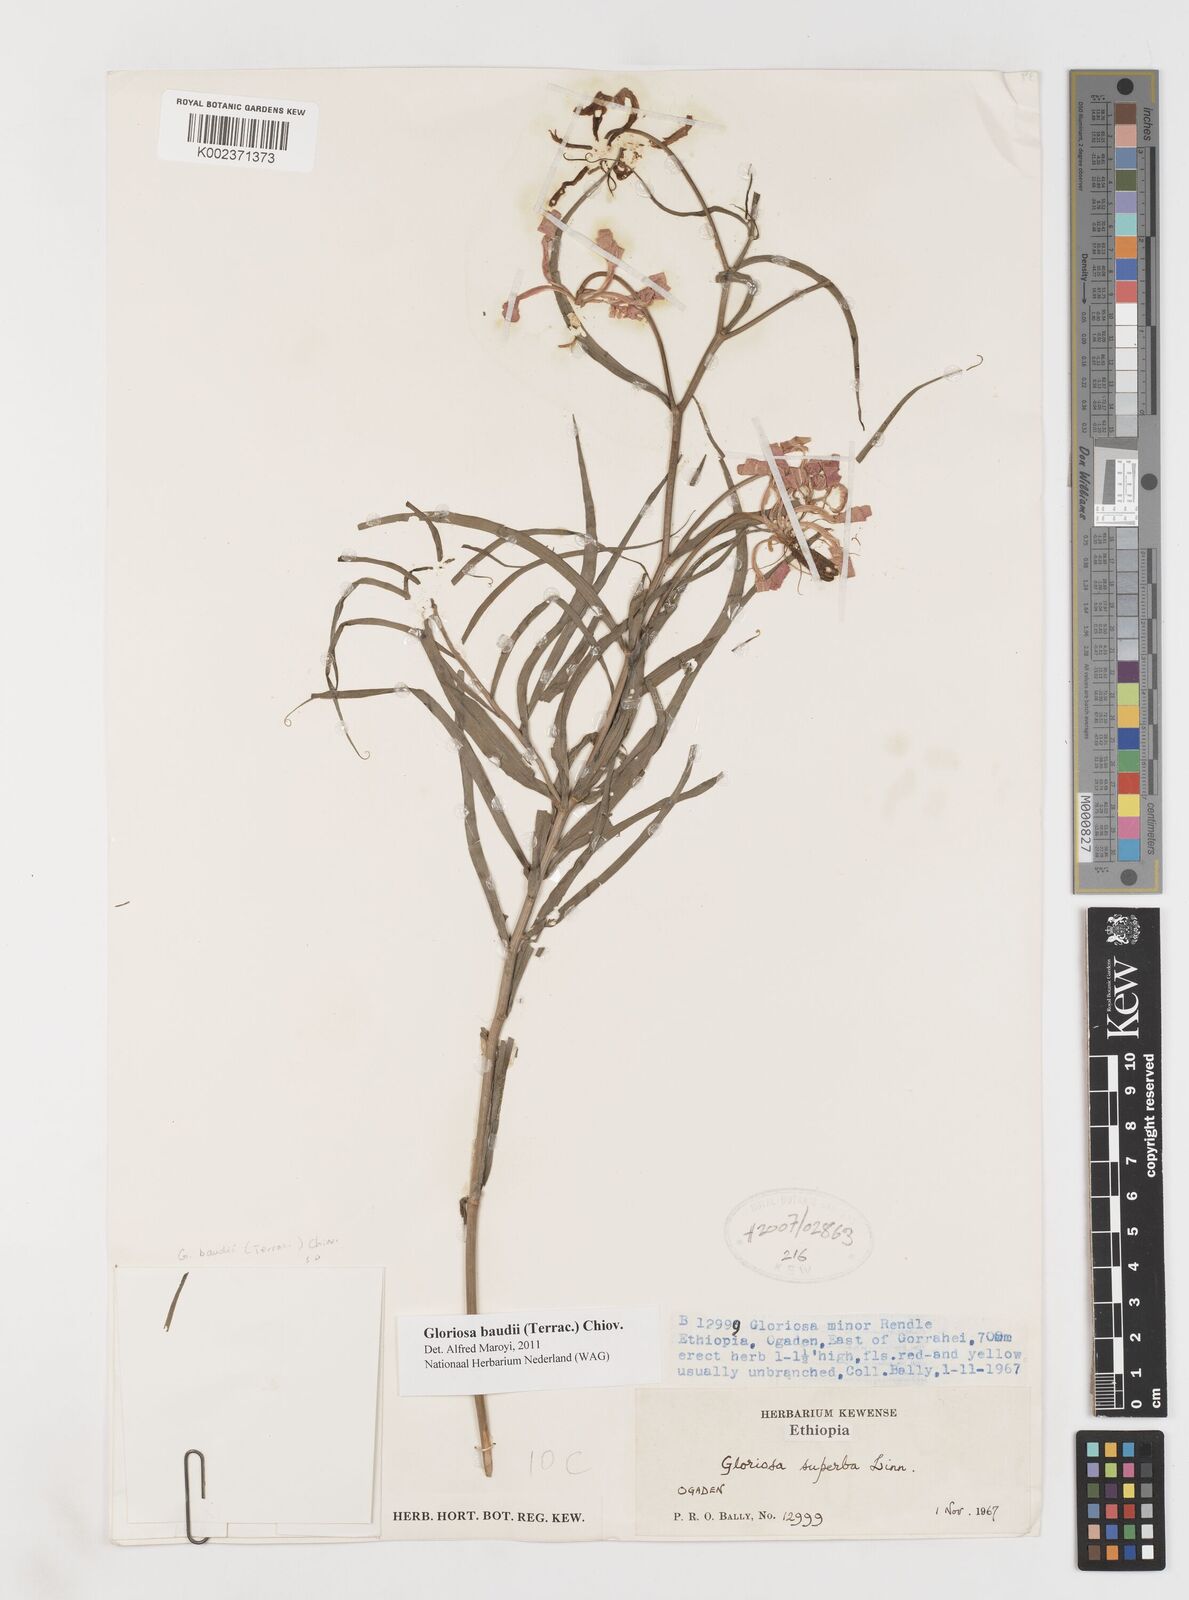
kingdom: Plantae
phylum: Tracheophyta
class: Liliopsida
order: Liliales
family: Colchicaceae
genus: Gloriosa
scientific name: Gloriosa baudii
